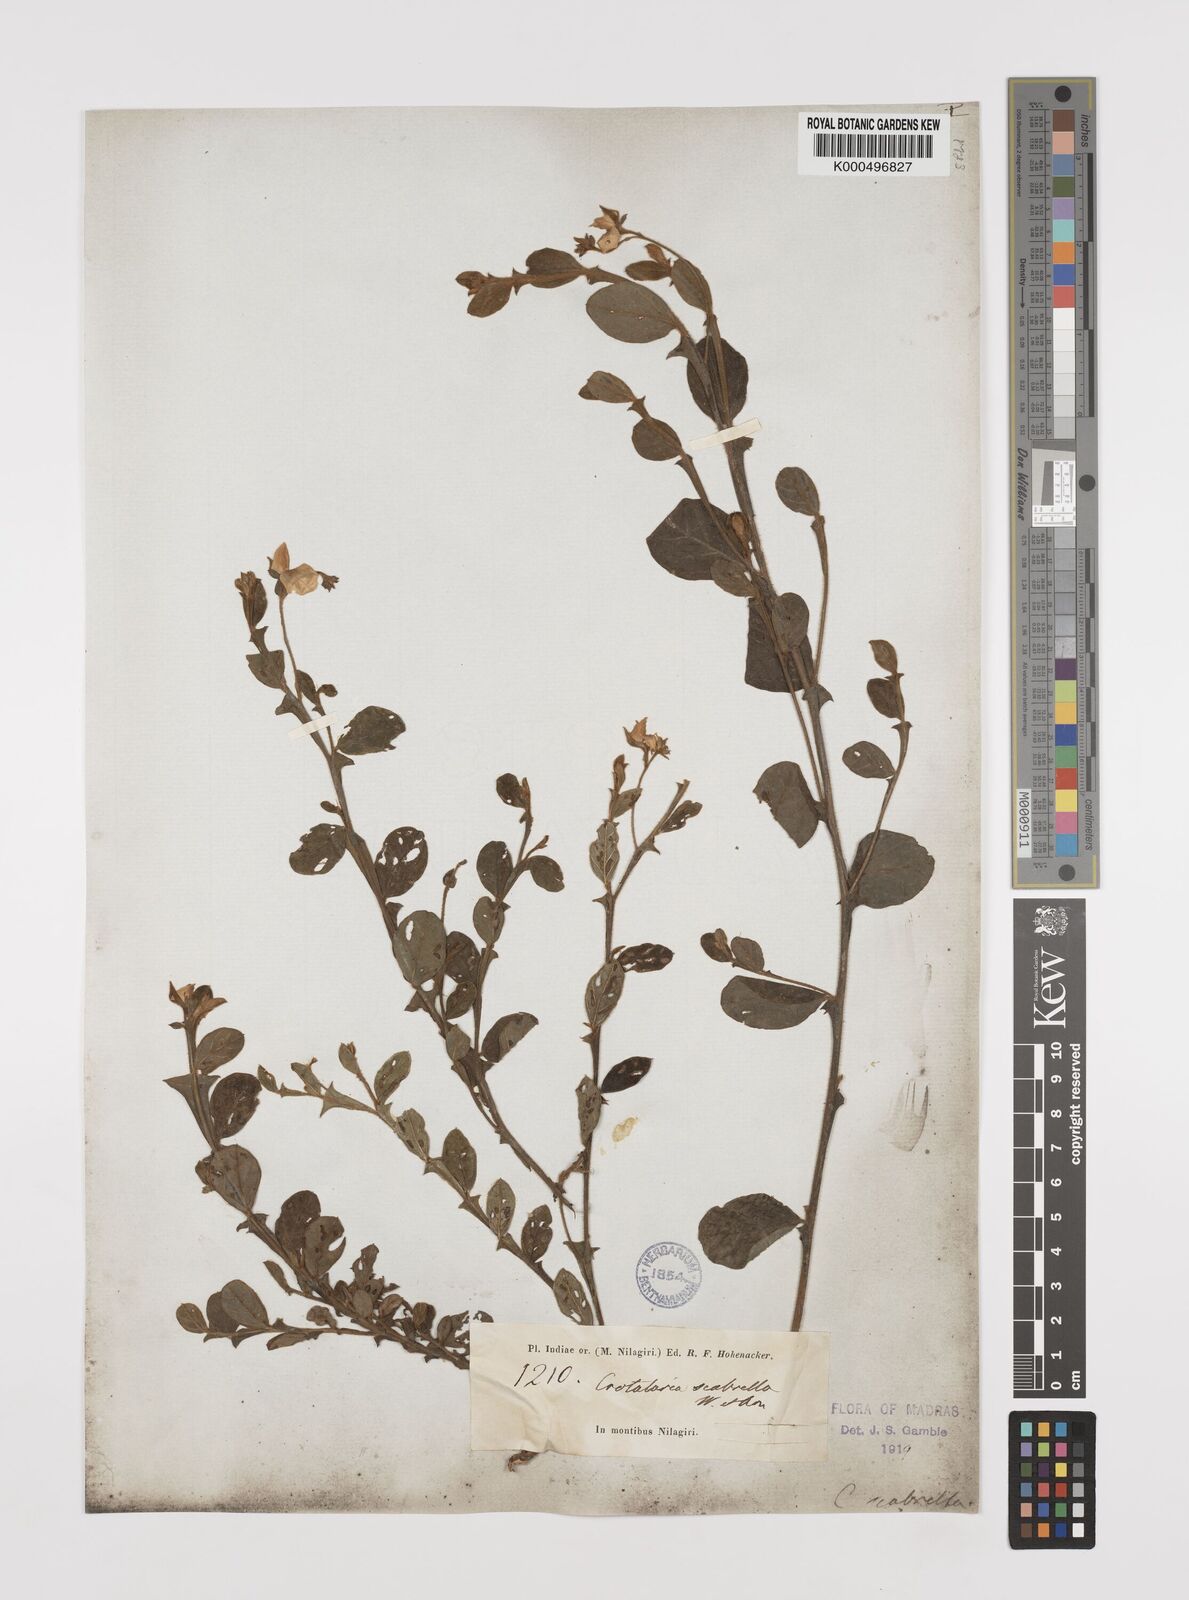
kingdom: Plantae
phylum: Tracheophyta
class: Magnoliopsida
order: Fabales
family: Fabaceae
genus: Crotalaria
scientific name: Crotalaria scabrella
